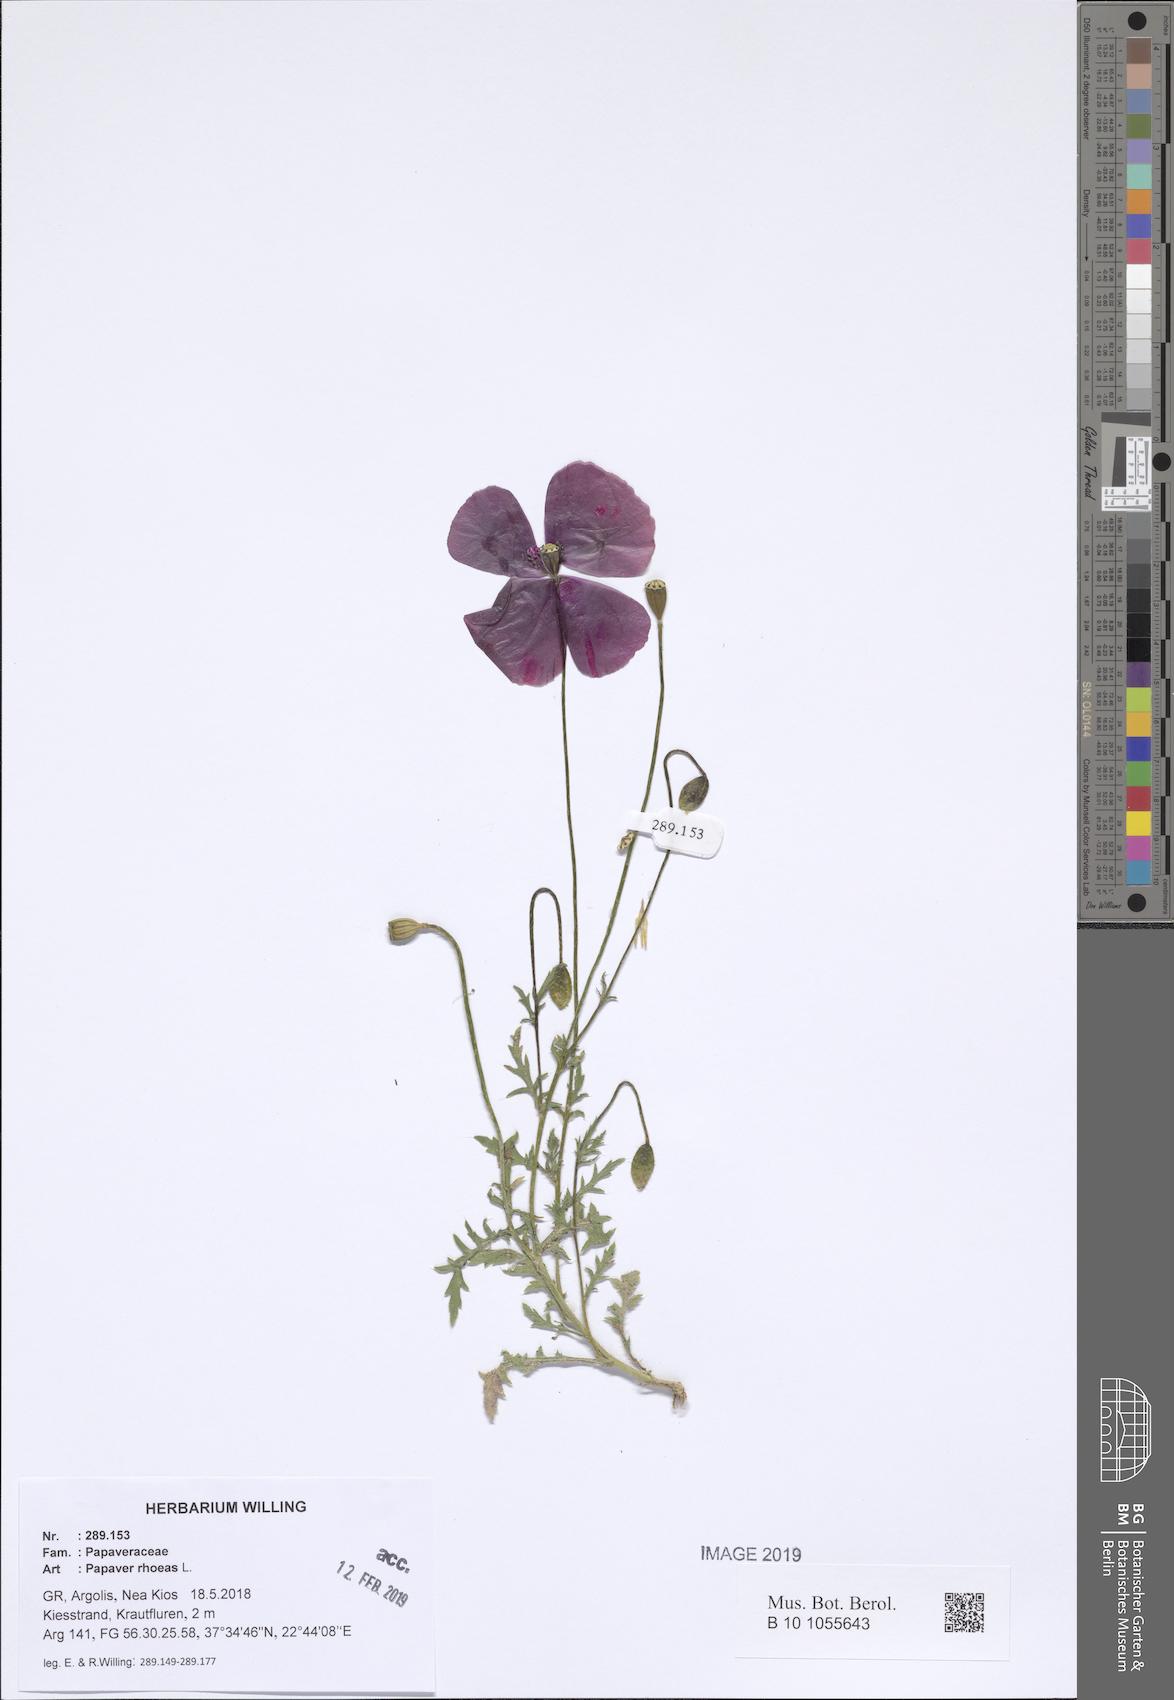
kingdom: Plantae
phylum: Tracheophyta
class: Magnoliopsida
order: Ranunculales
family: Papaveraceae
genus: Papaver
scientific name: Papaver rhoeas
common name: Corn poppy
